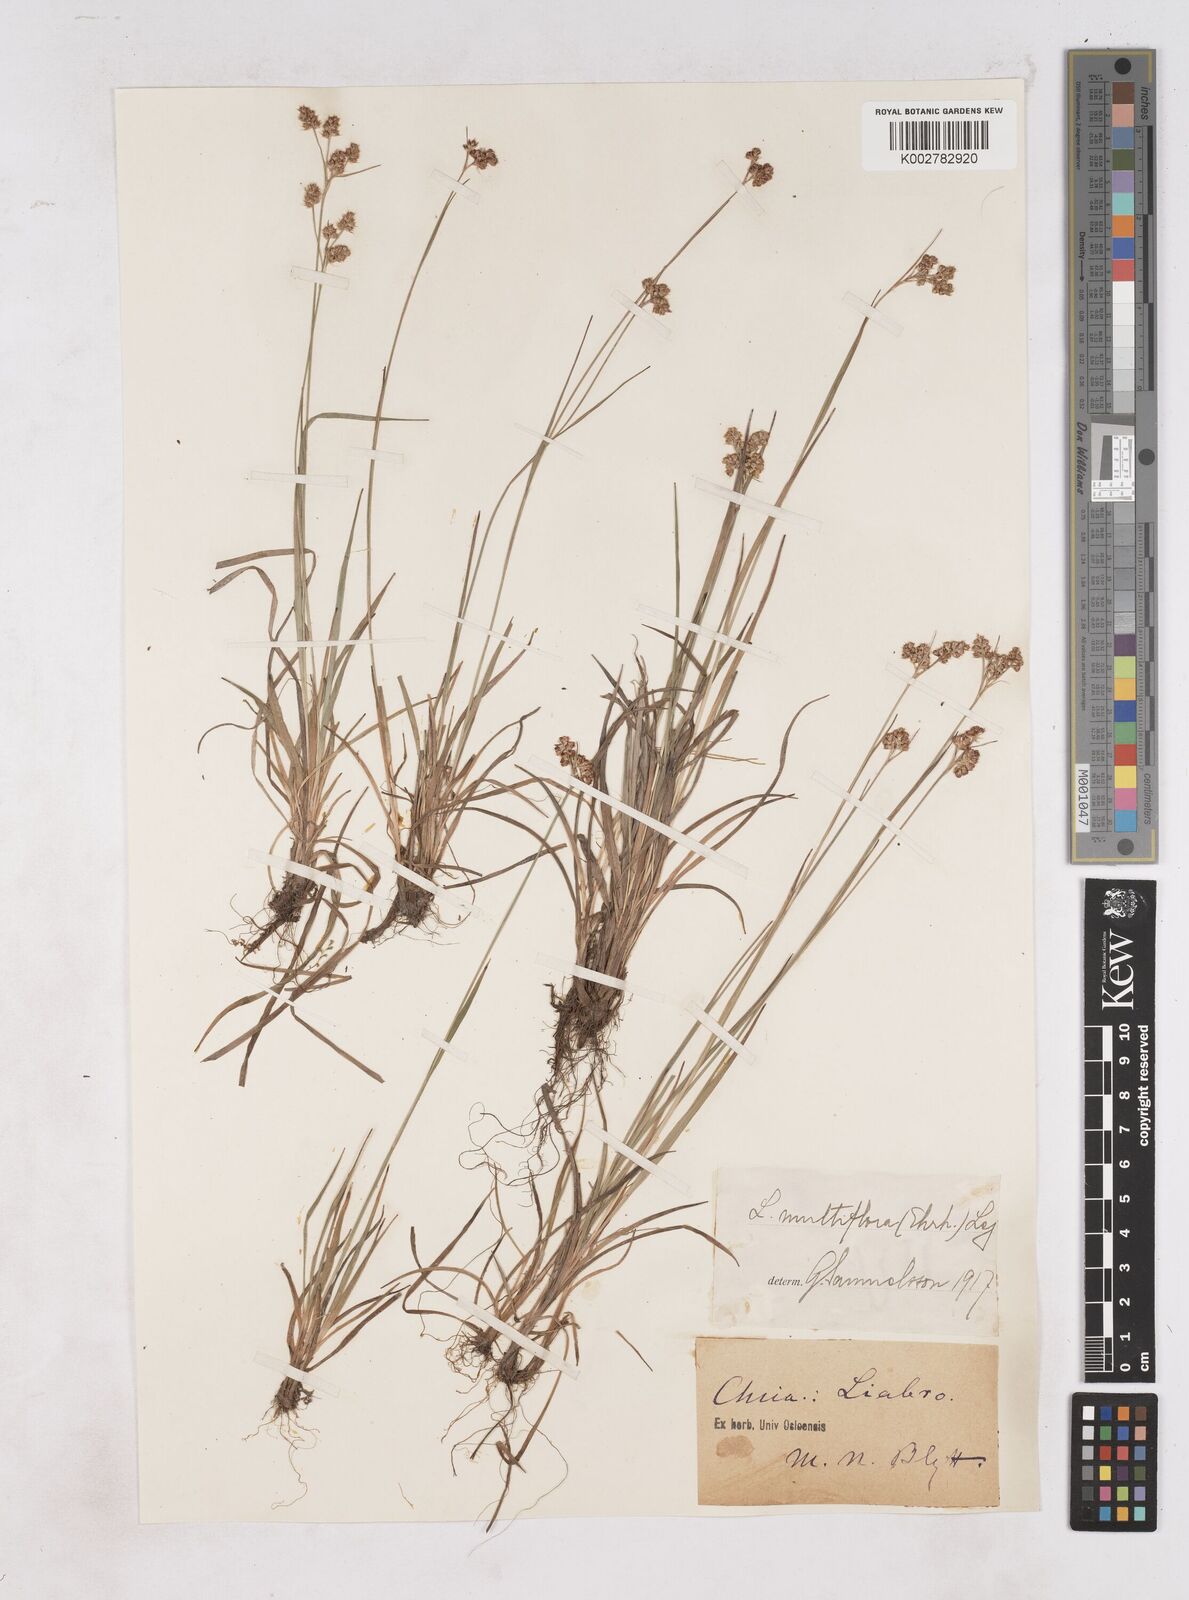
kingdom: Plantae
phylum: Tracheophyta
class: Liliopsida
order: Poales
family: Juncaceae
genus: Luzula
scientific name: Luzula campestris
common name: Field wood-rush
